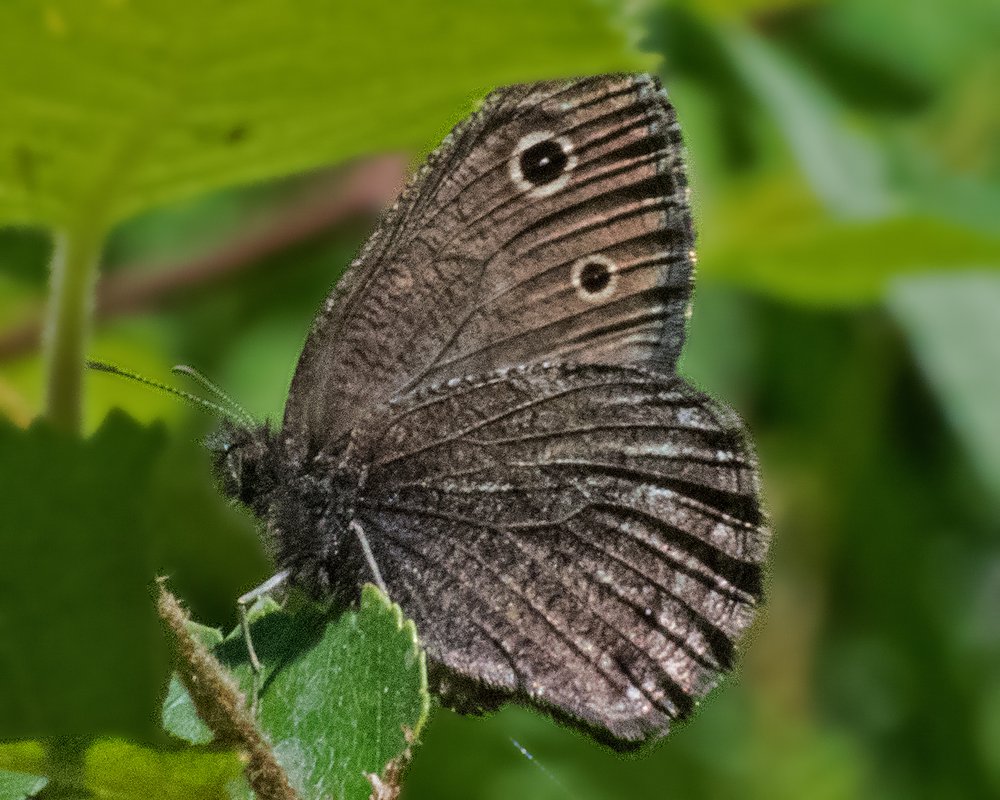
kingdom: Animalia
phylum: Arthropoda
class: Insecta
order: Lepidoptera
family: Nymphalidae
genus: Cercyonis
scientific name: Cercyonis oetus
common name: Small Wood-Nymph
